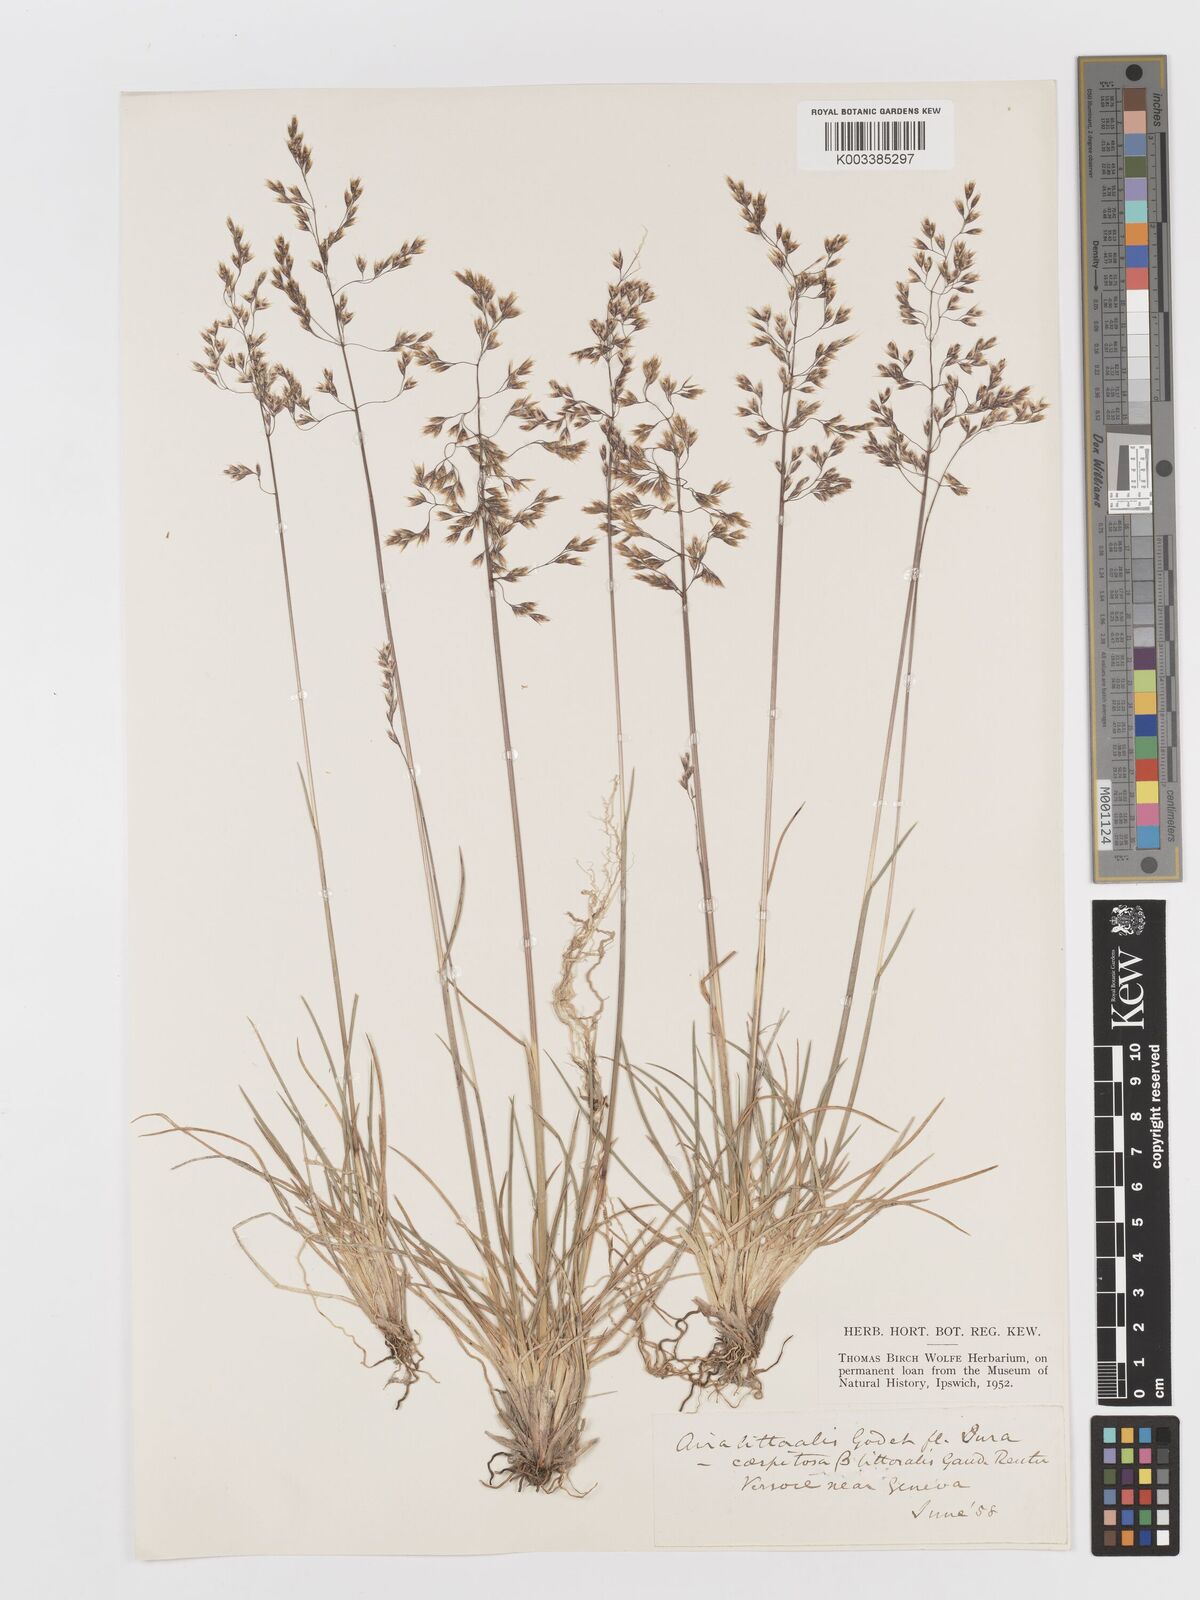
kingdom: Plantae
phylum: Tracheophyta
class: Liliopsida
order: Poales
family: Poaceae
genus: Deschampsia
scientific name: Deschampsia cespitosa
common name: Tufted hair-grass
